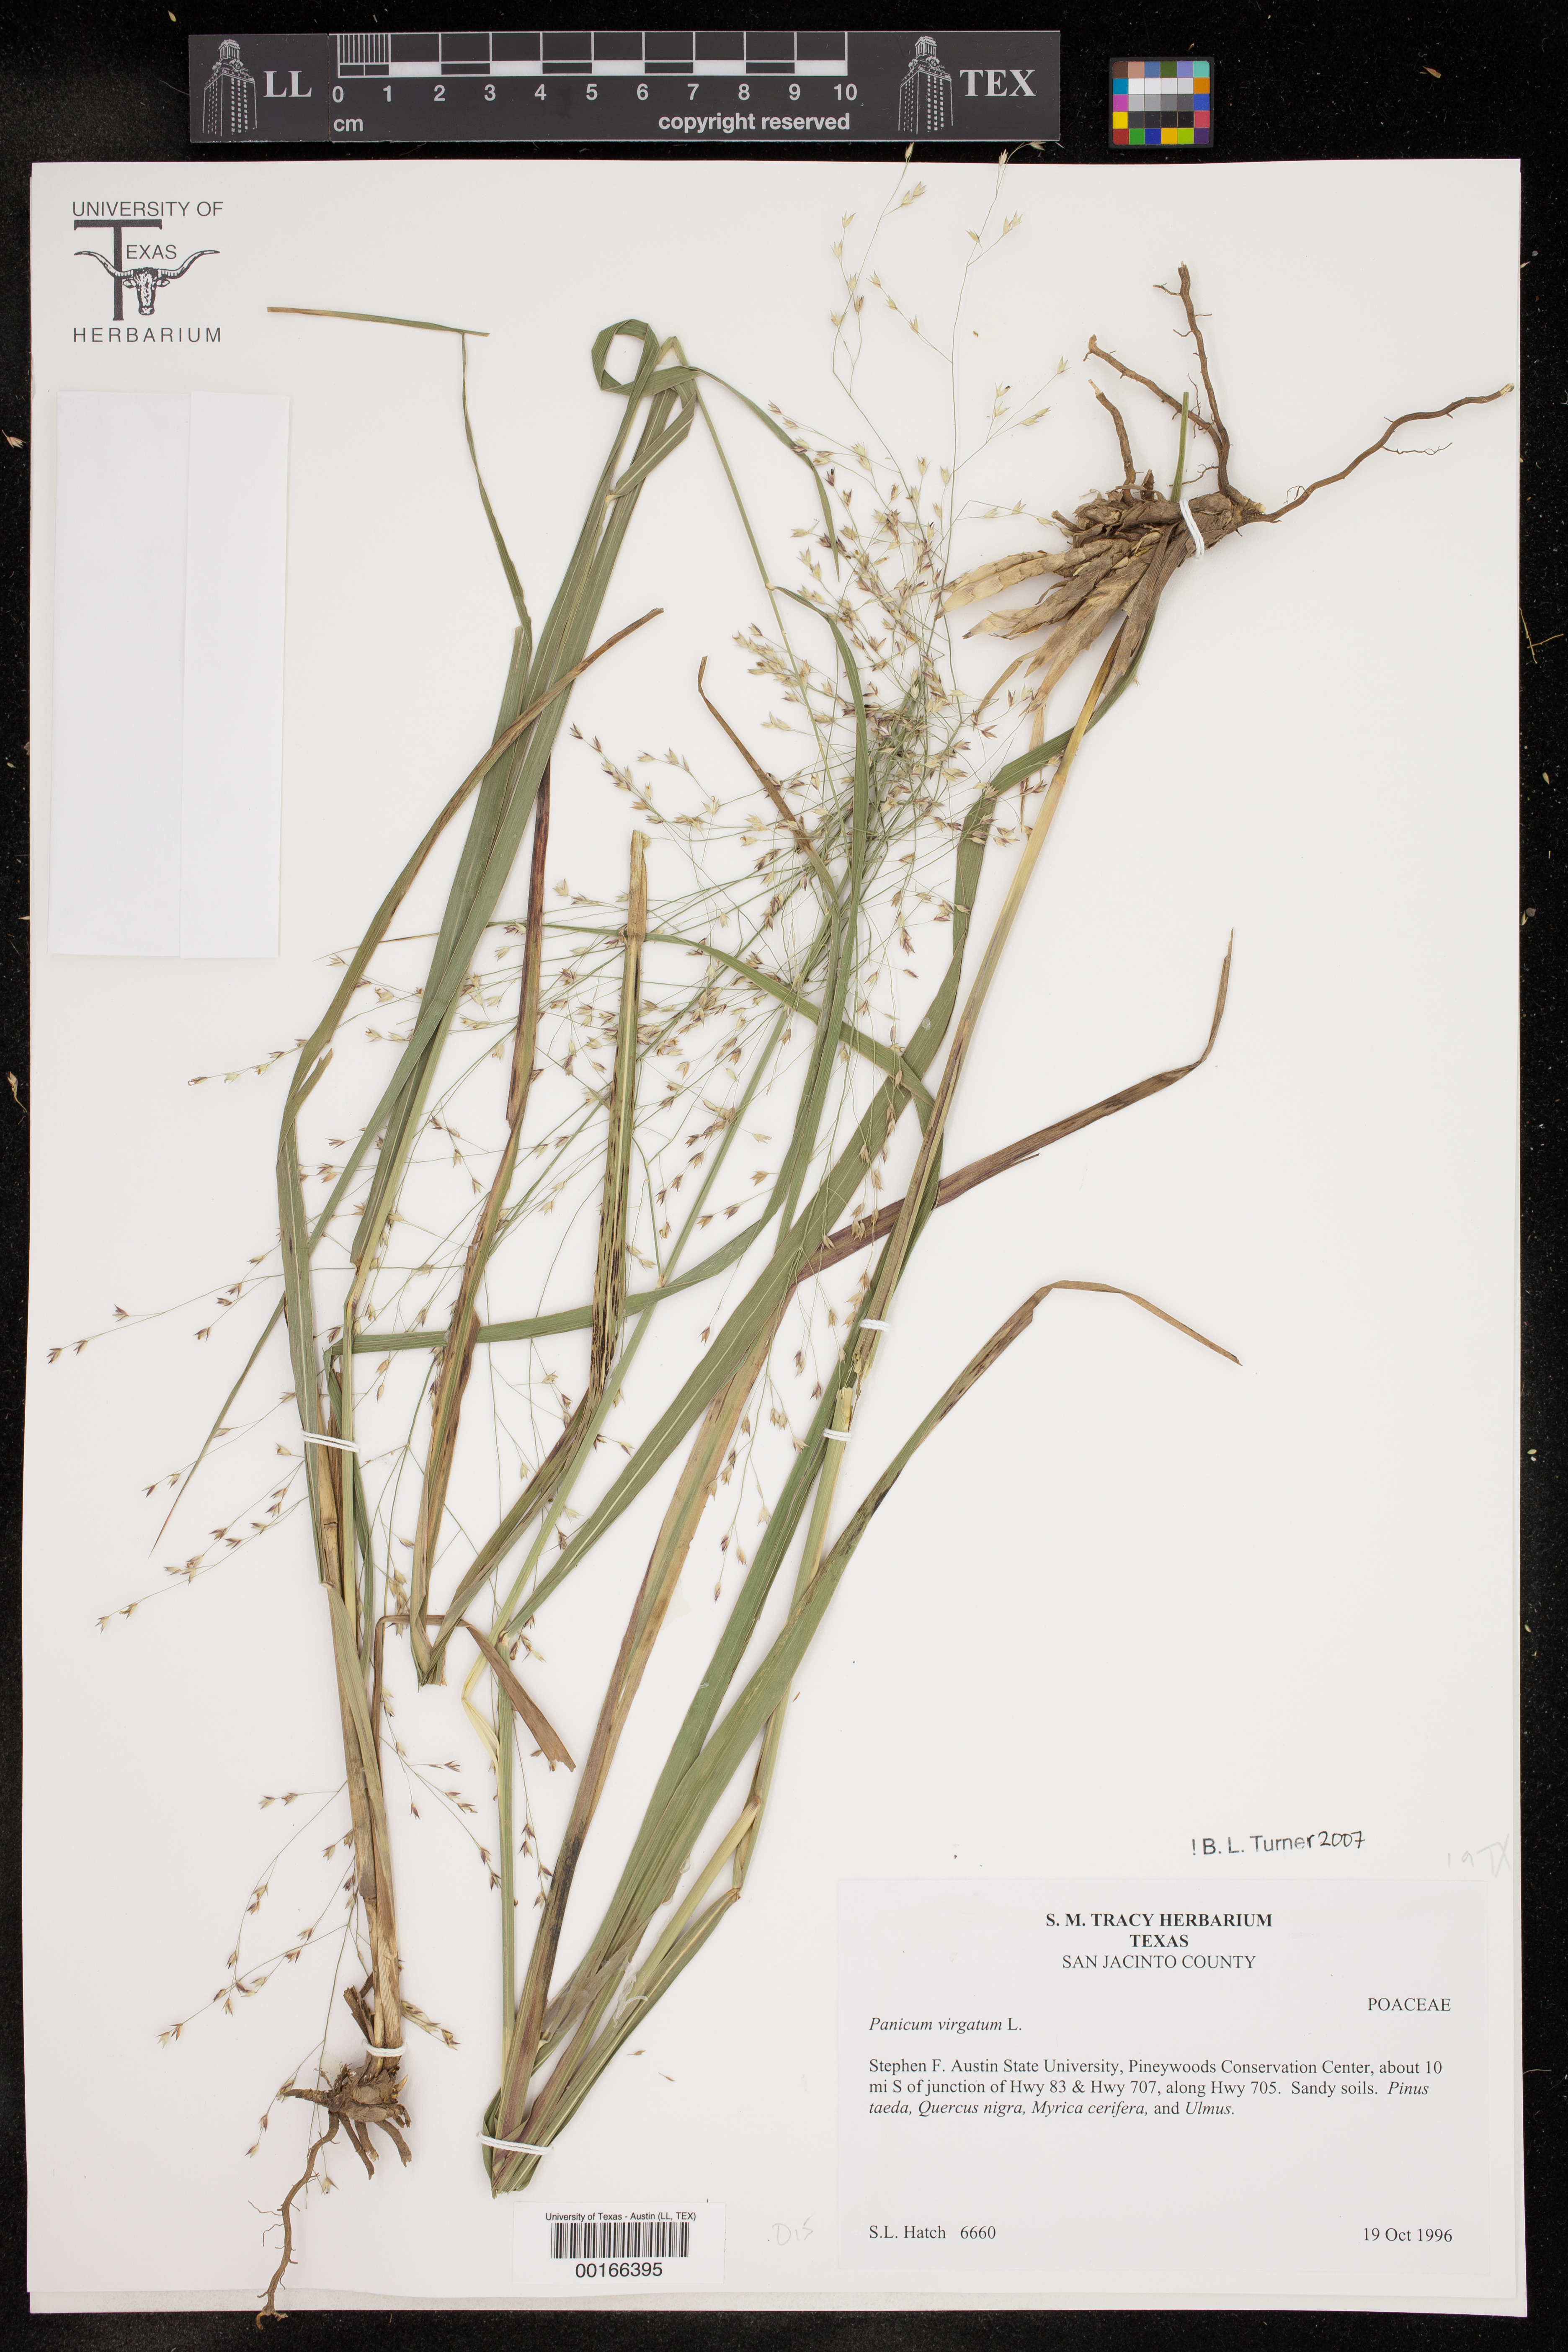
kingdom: Plantae
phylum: Tracheophyta
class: Liliopsida
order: Poales
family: Poaceae
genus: Panicum
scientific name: Panicum virgatum
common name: Switchgrass
